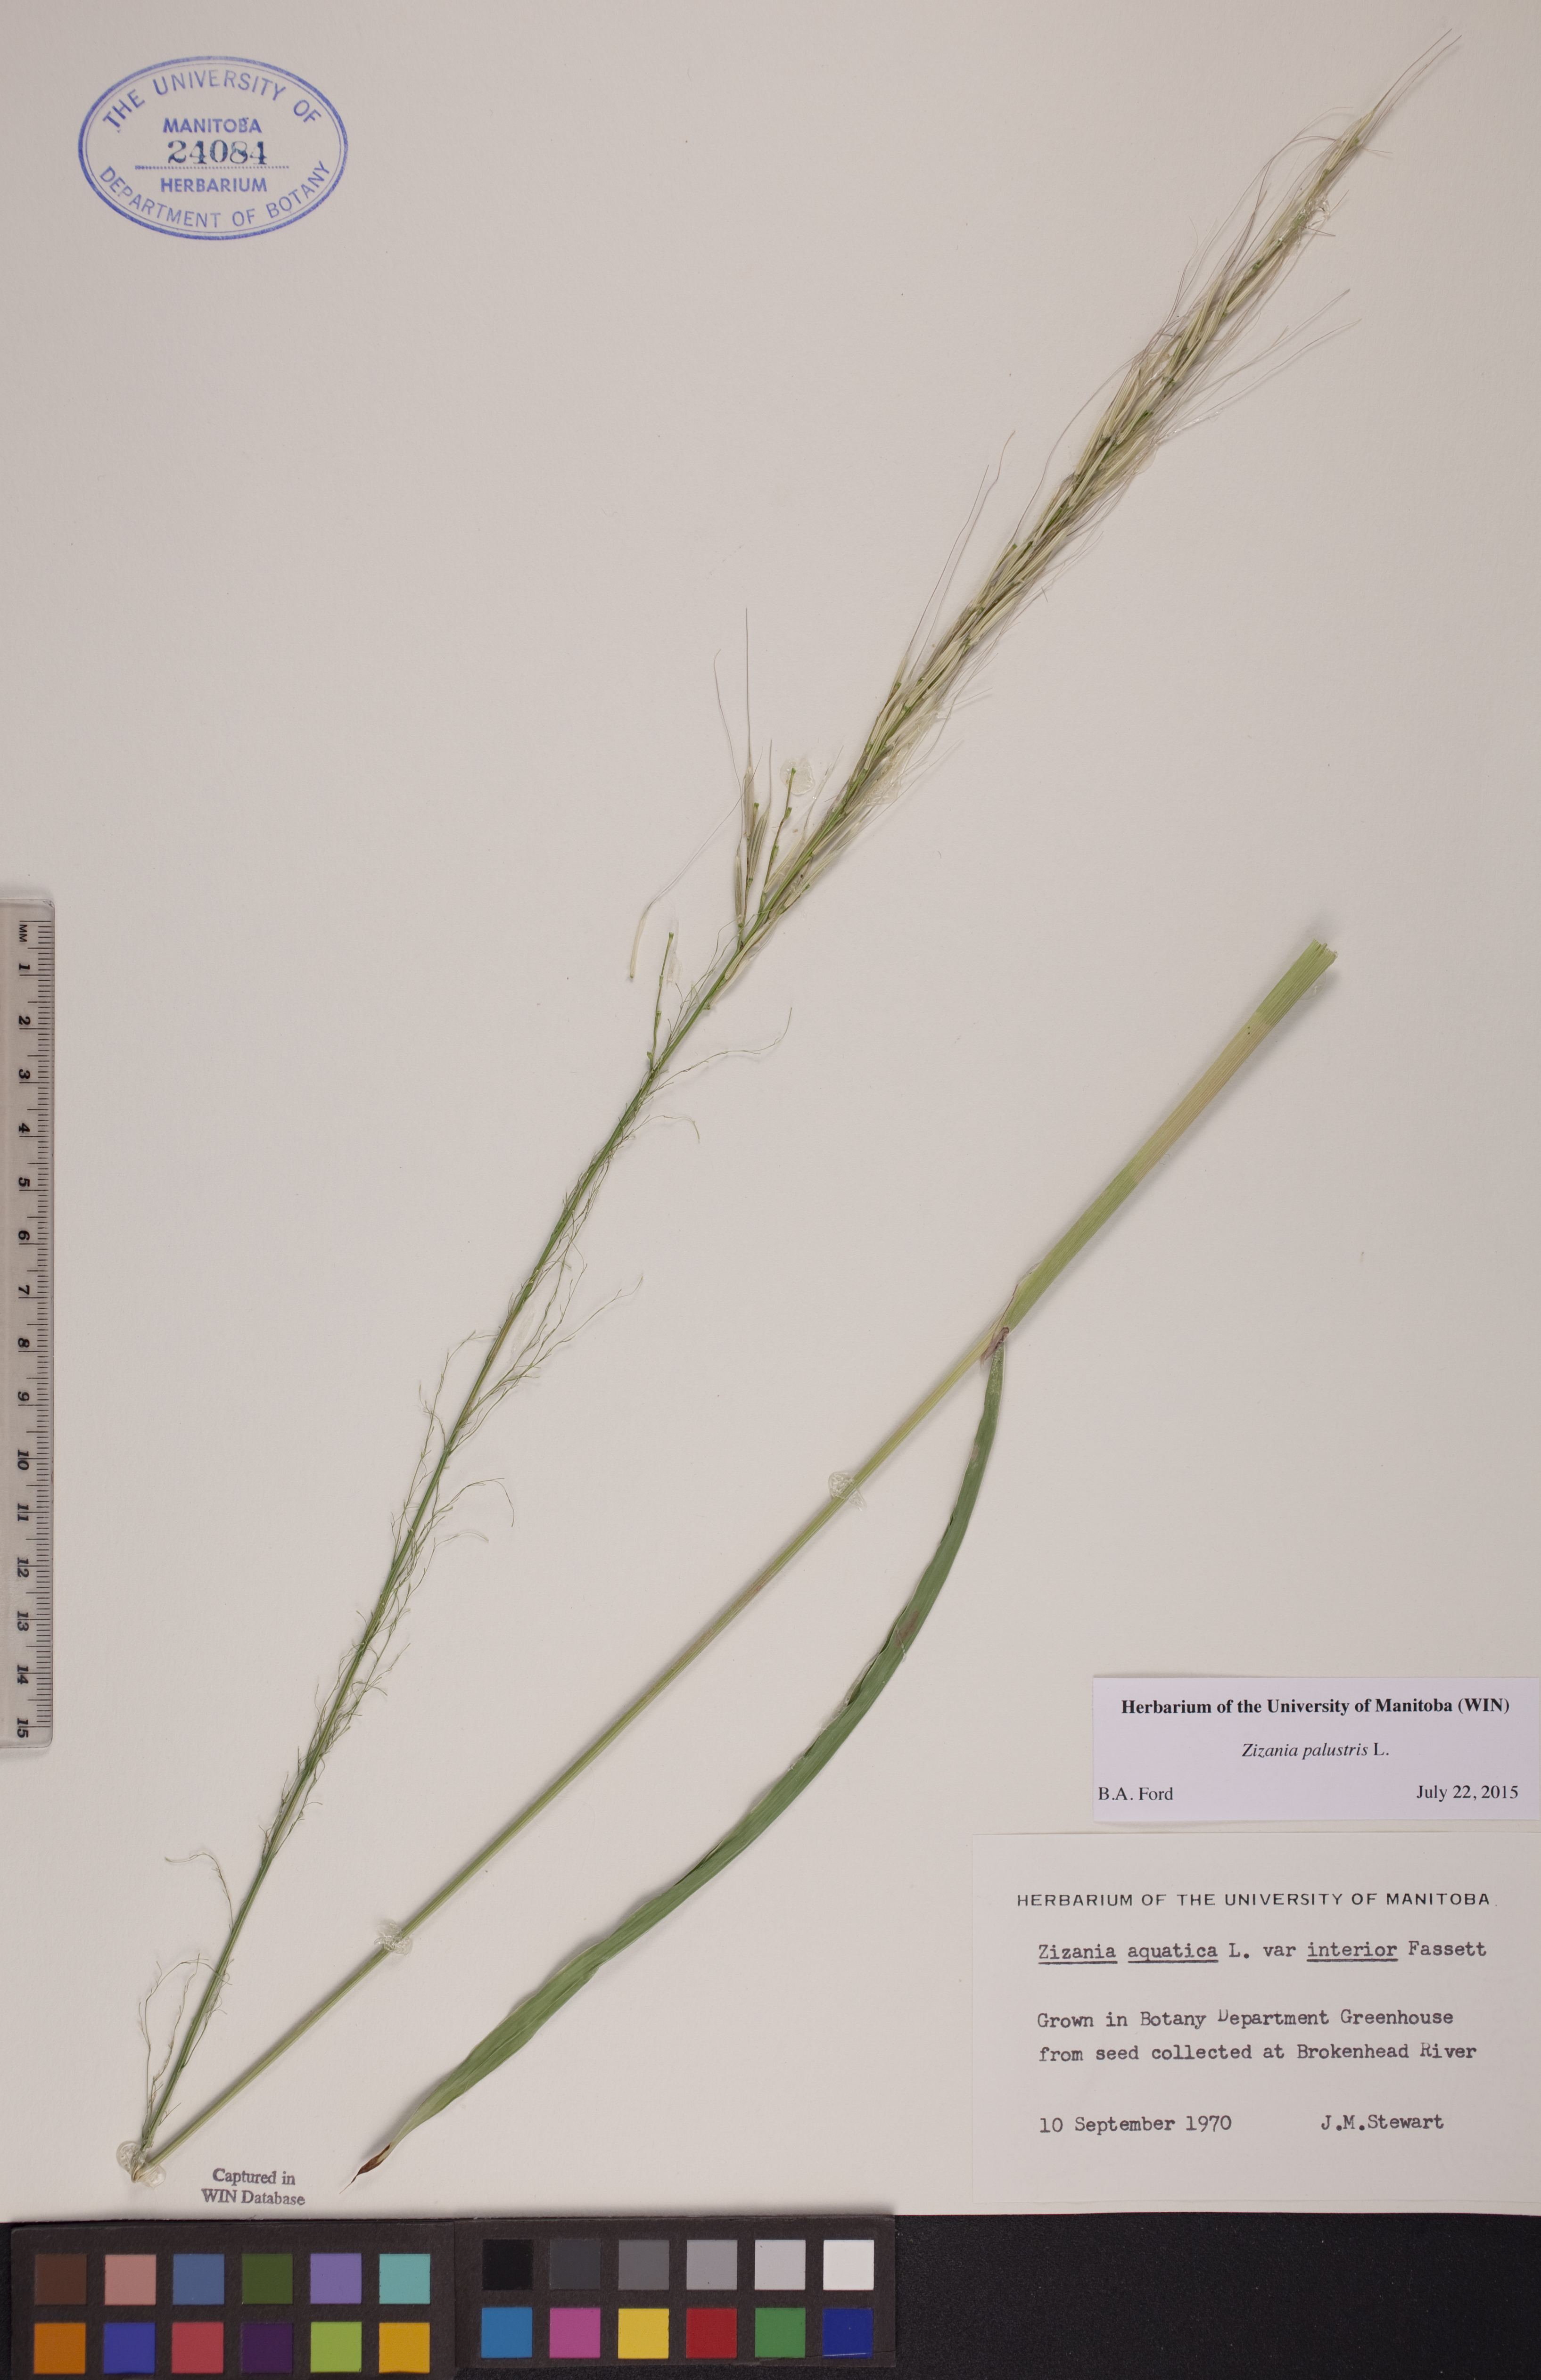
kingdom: Plantae
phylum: Tracheophyta
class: Liliopsida
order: Poales
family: Poaceae
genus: Zizania
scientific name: Zizania palustris
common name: Northern wild rice
